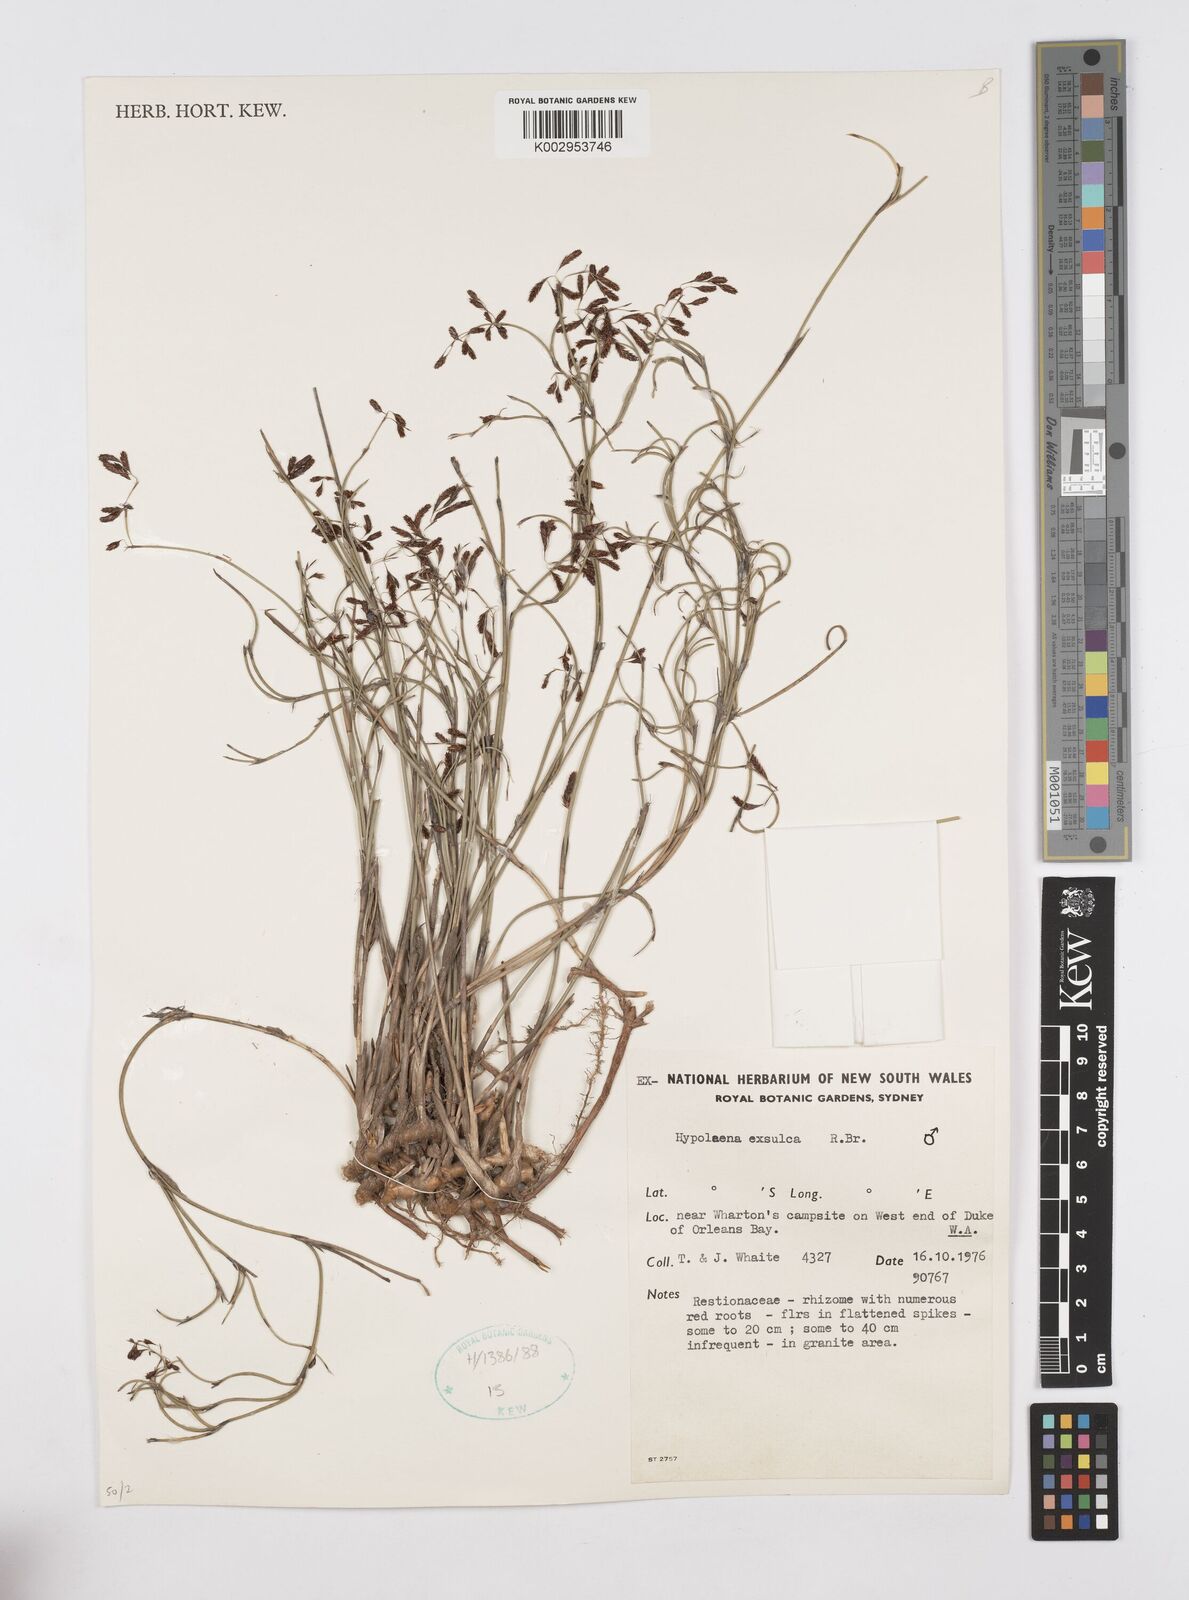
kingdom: Plantae
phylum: Tracheophyta
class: Liliopsida
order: Poales
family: Restionaceae
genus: Hypolaena
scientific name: Hypolaena exsulca
